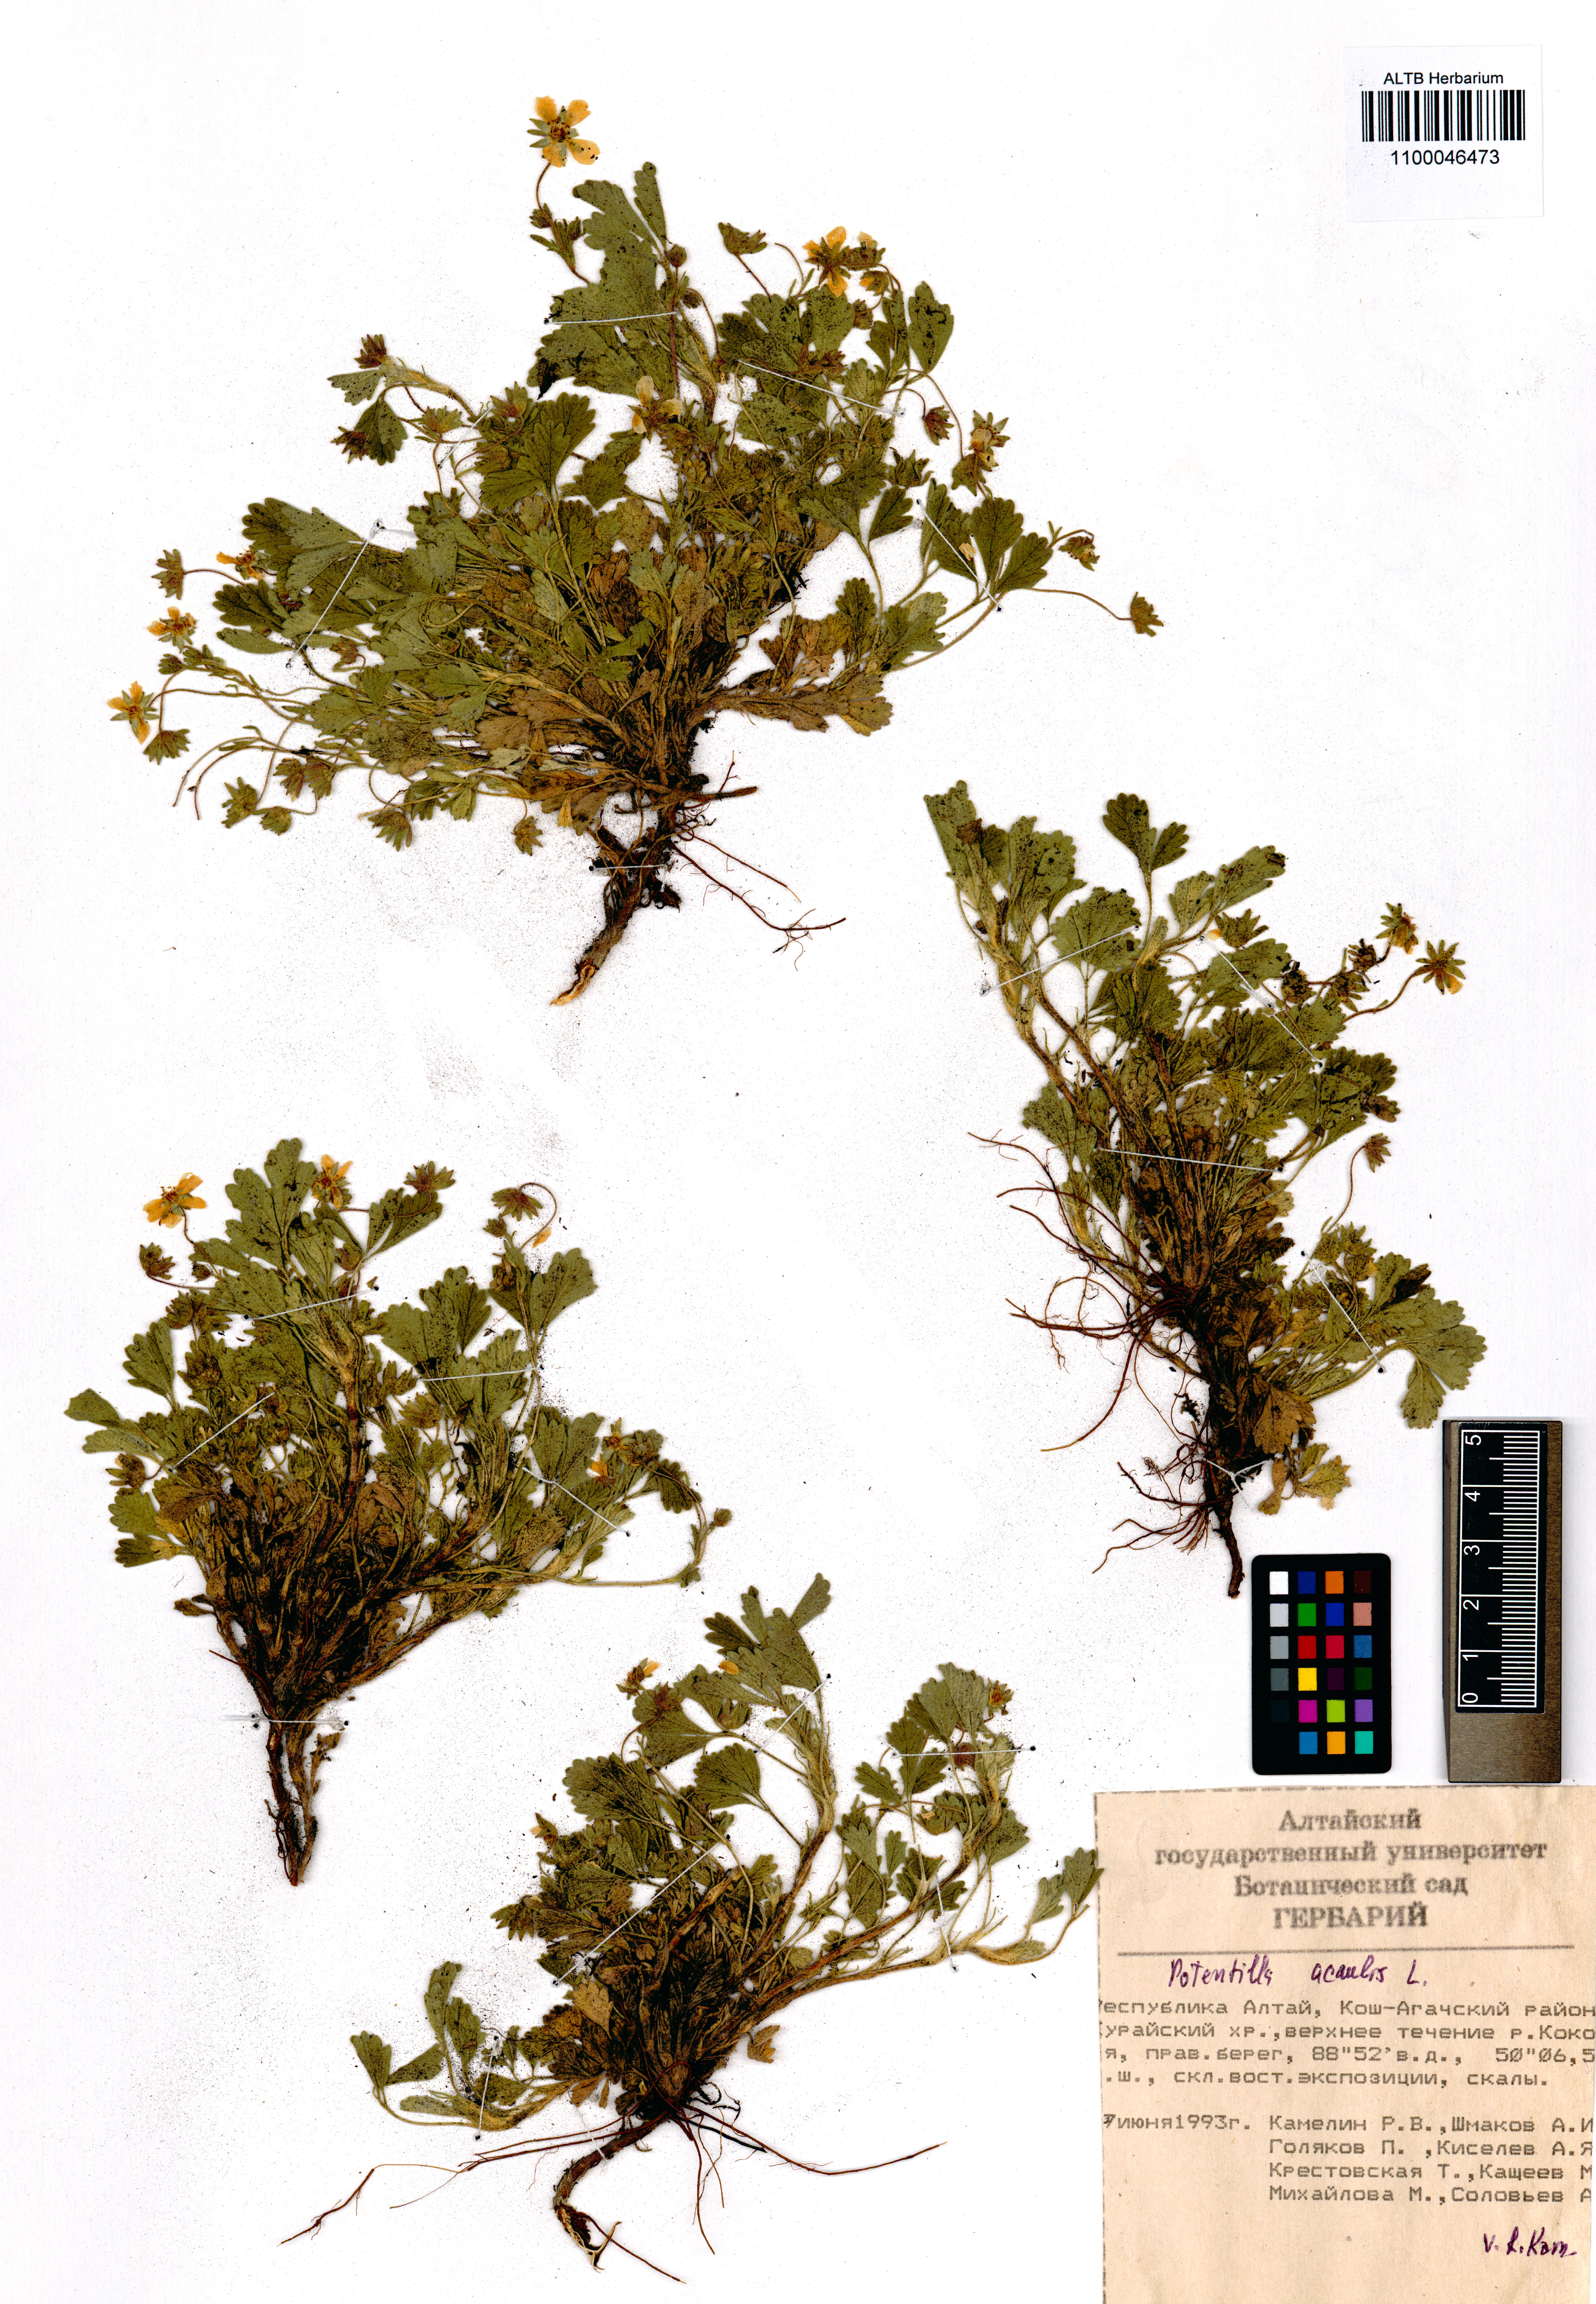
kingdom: Plantae
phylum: Tracheophyta
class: Magnoliopsida
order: Rosales
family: Rosaceae
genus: Potentilla
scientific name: Potentilla acaulis
